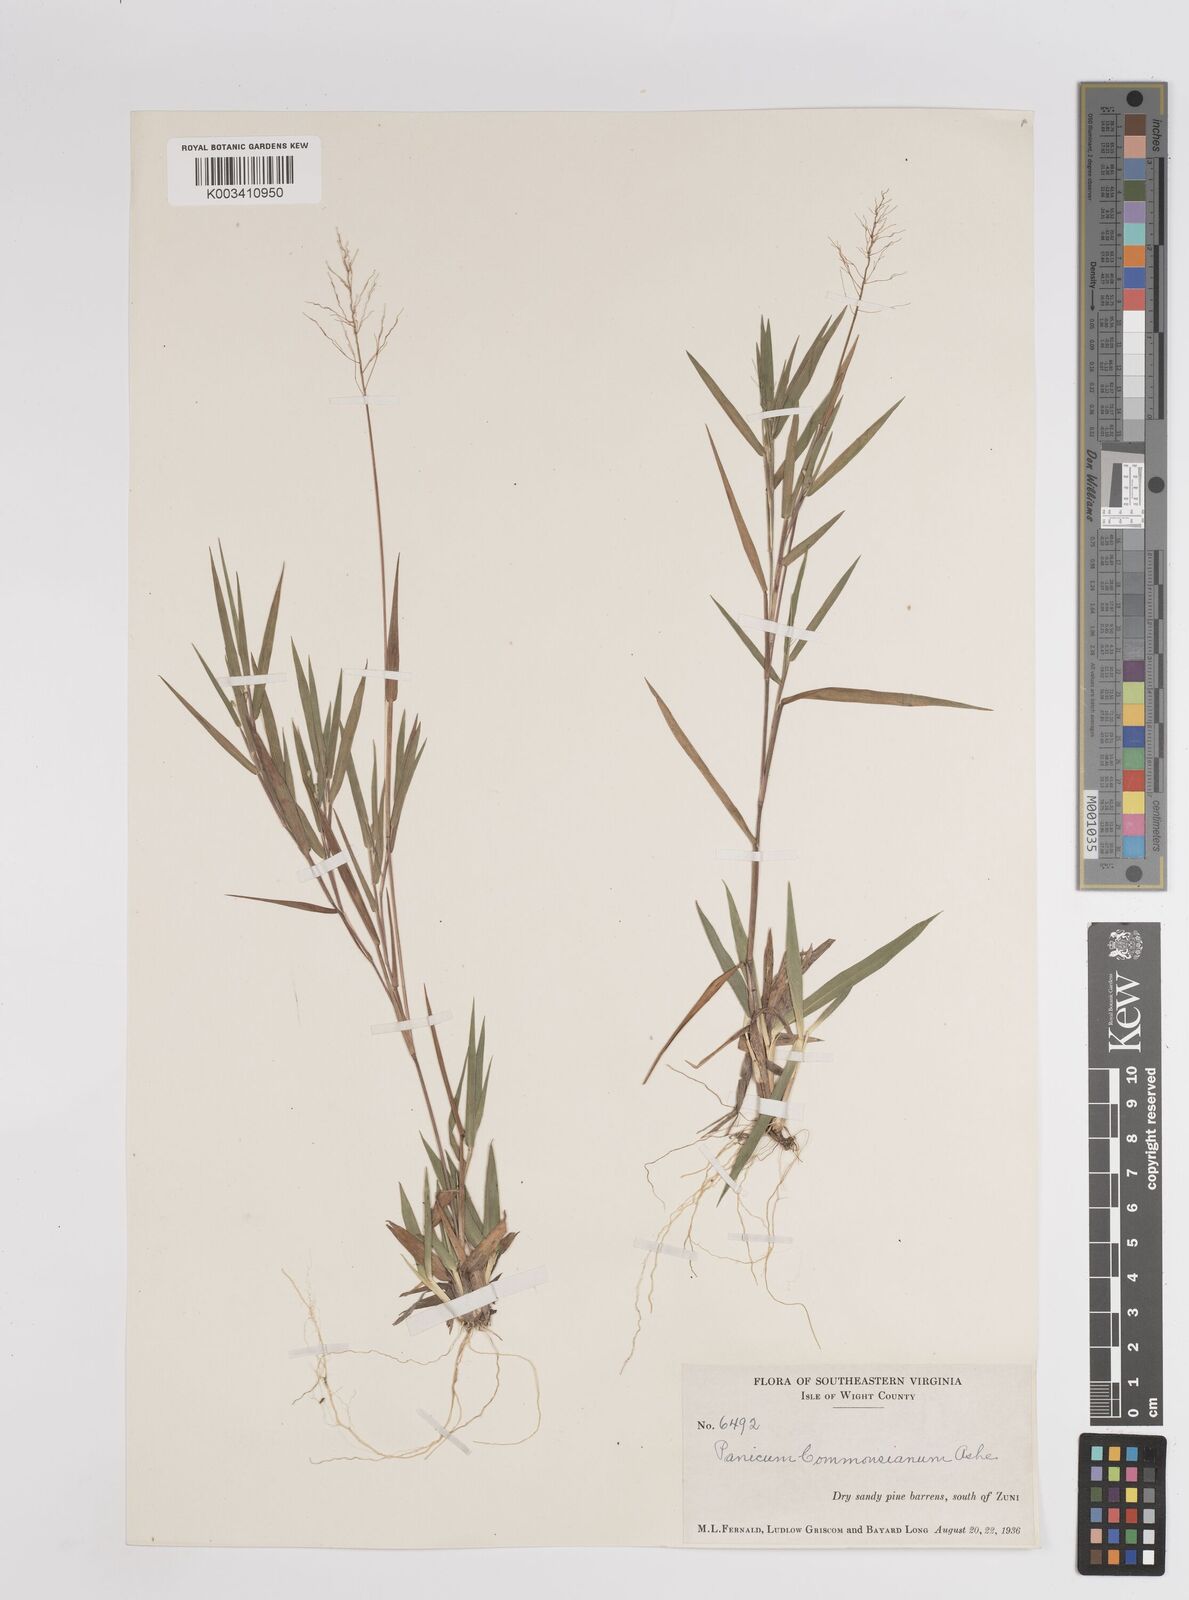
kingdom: Plantae
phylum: Tracheophyta
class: Liliopsida
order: Poales
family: Poaceae
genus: Dichanthelium
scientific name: Dichanthelium commonsianum
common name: Commons' panicgrass
